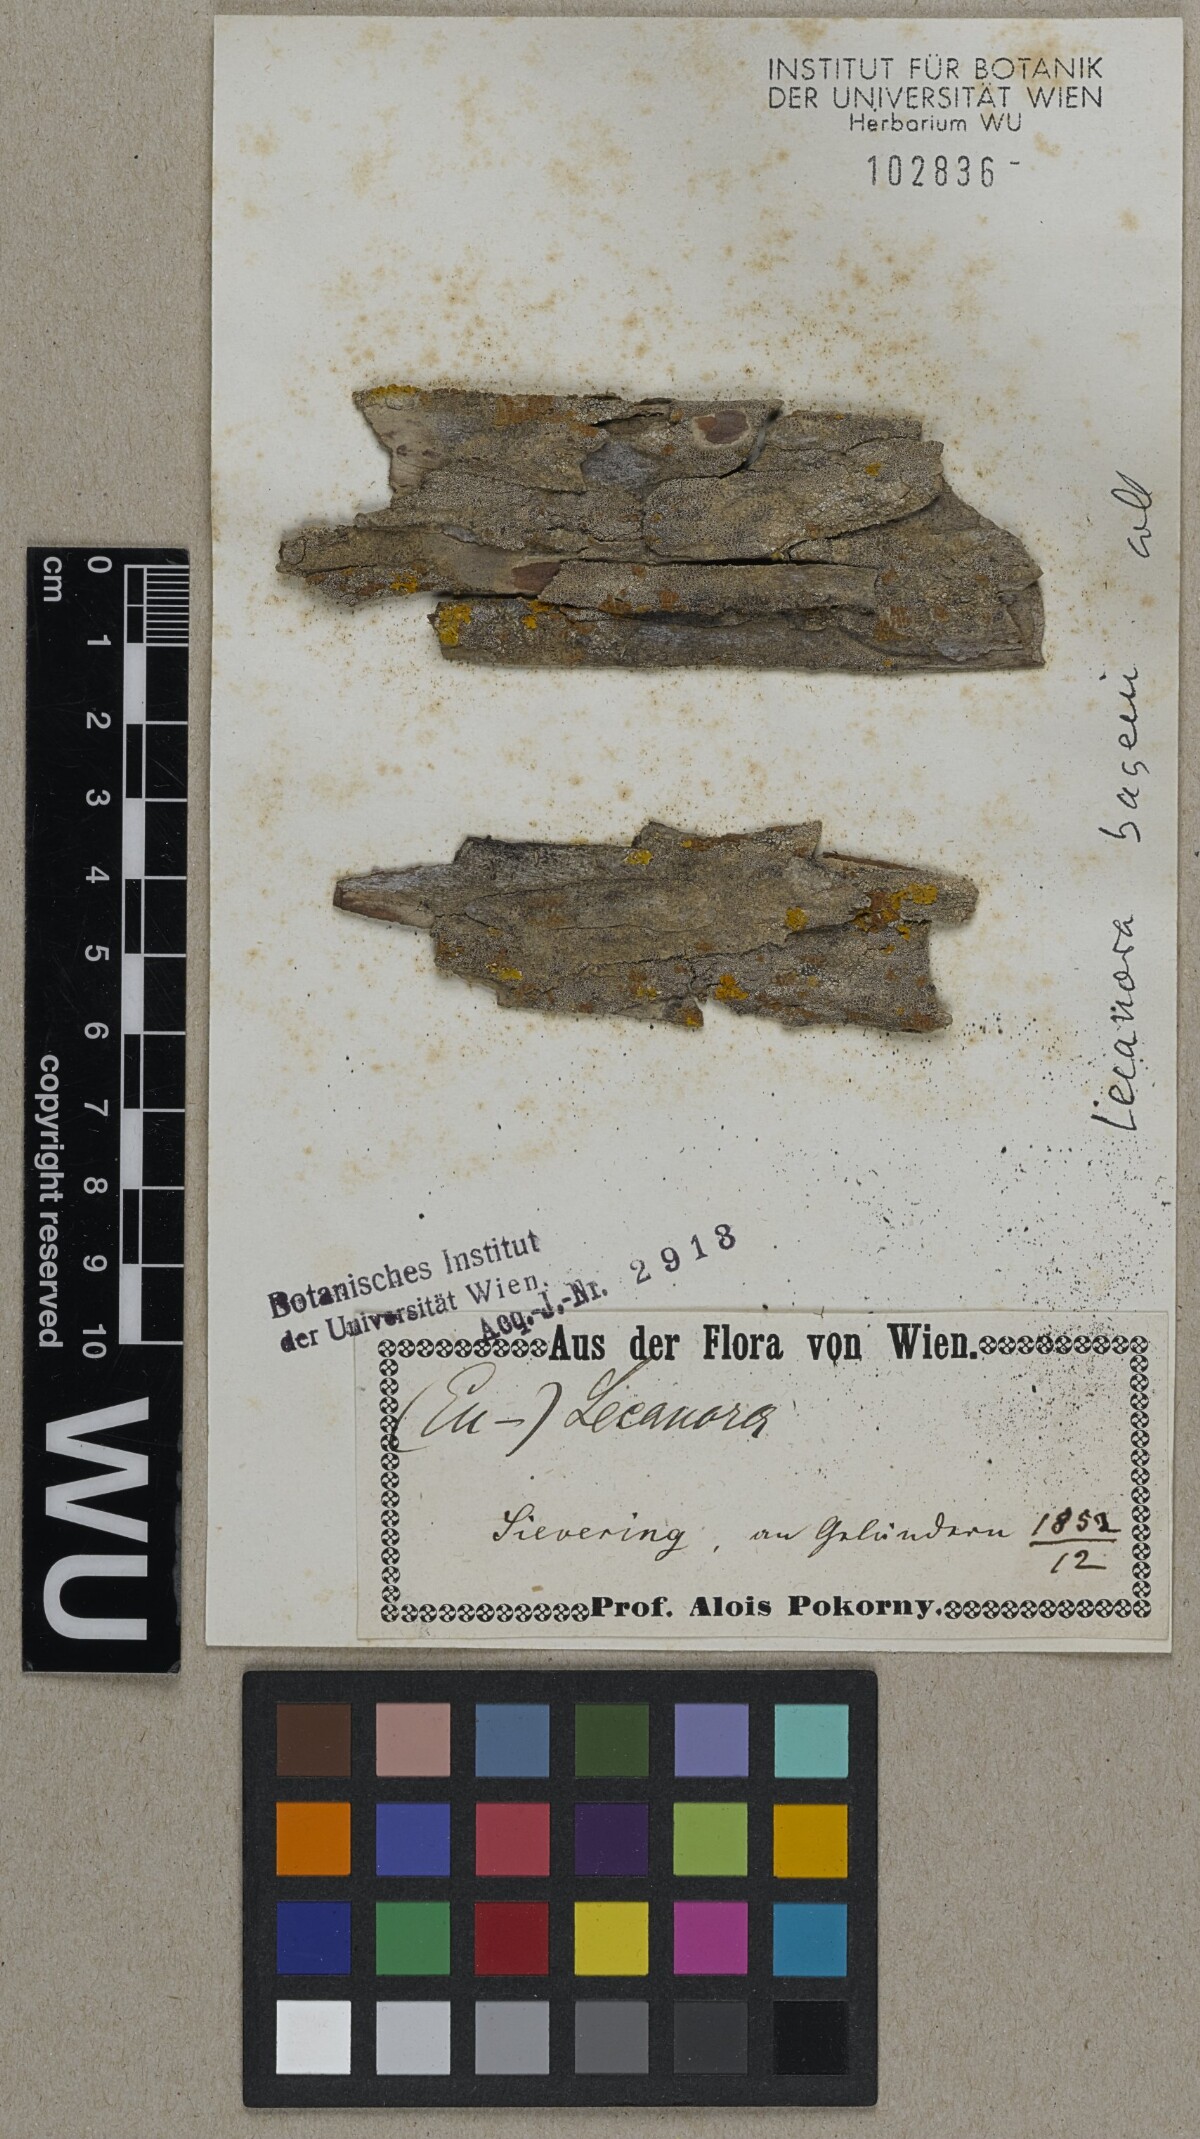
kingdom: Fungi
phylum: Ascomycota
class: Lecanoromycetes
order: Lecanorales
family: Lecanoraceae
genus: Lecanora
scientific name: Lecanora
